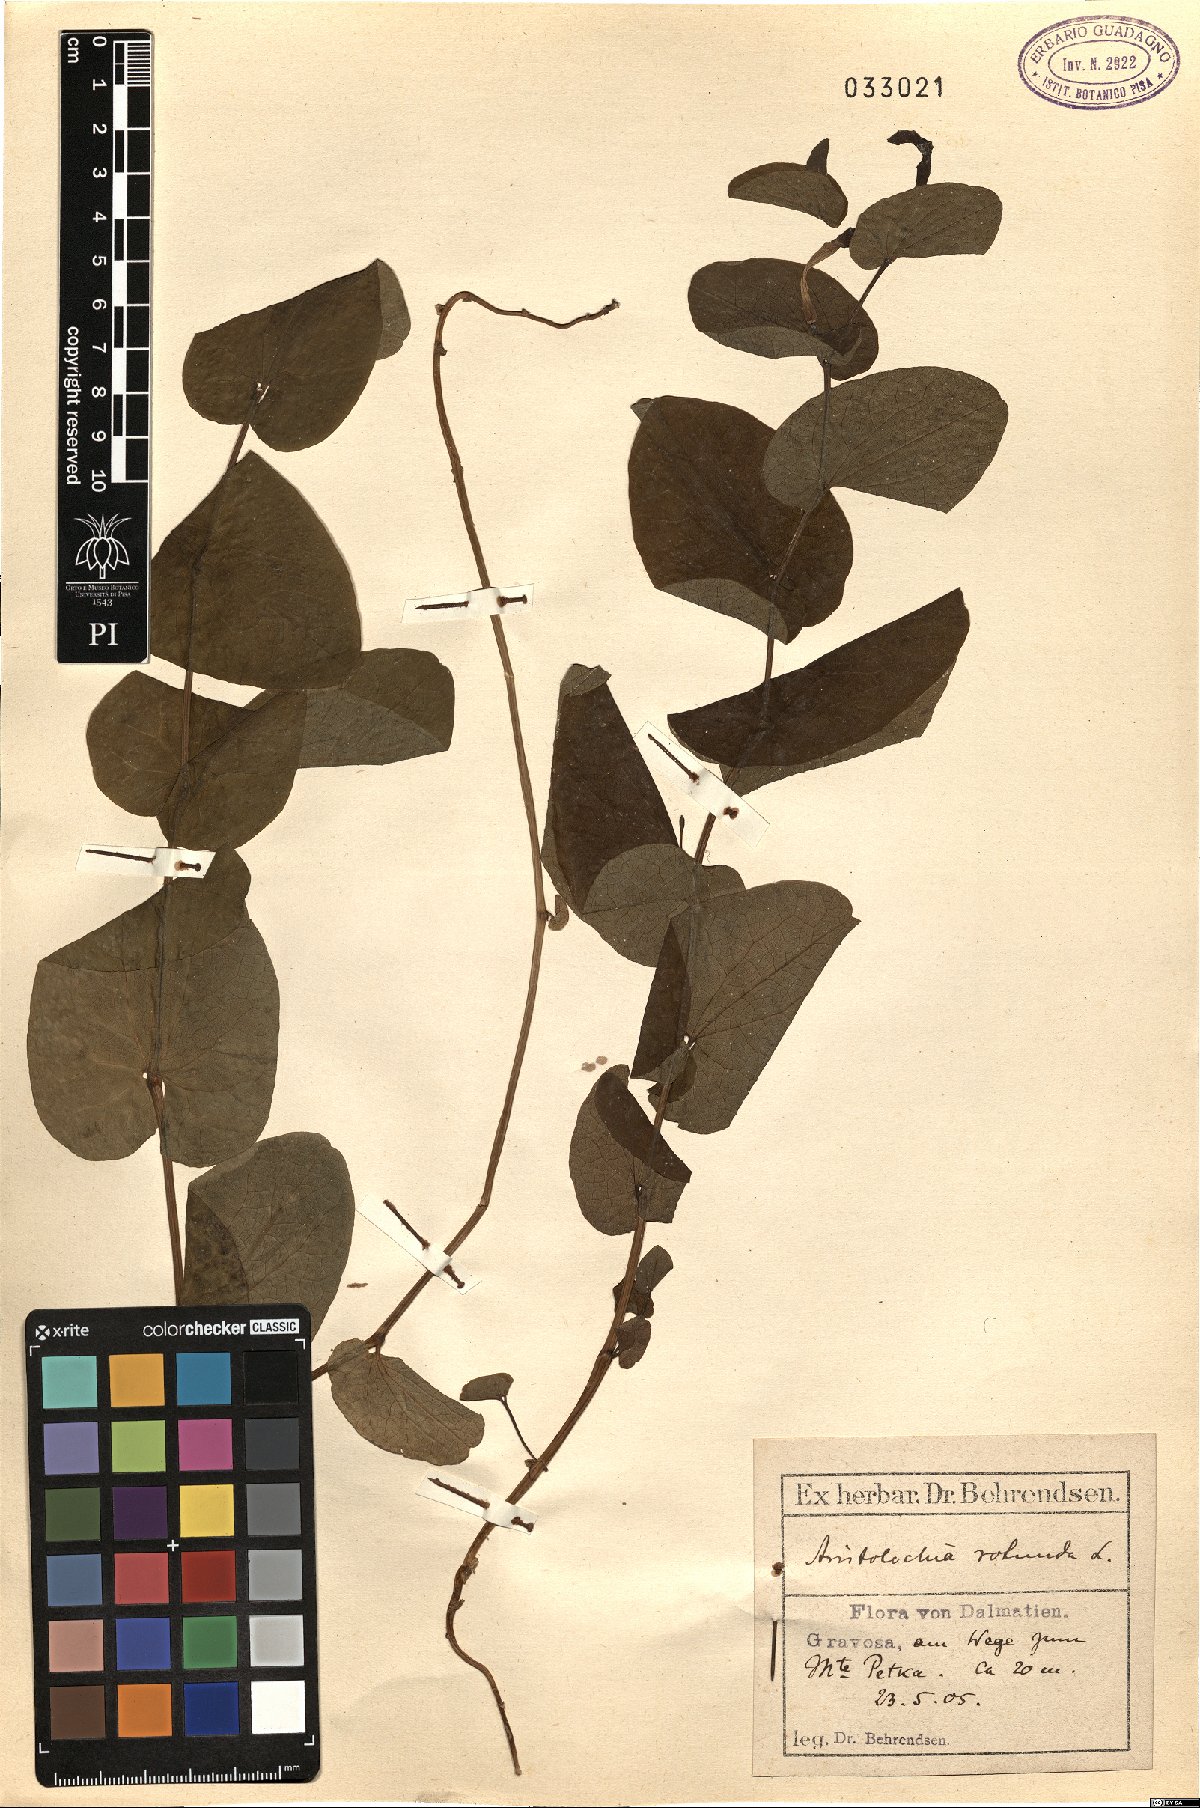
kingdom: Plantae
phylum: Tracheophyta
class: Magnoliopsida
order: Piperales
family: Aristolochiaceae
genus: Aristolochia
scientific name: Aristolochia rotunda
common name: Smearwort
